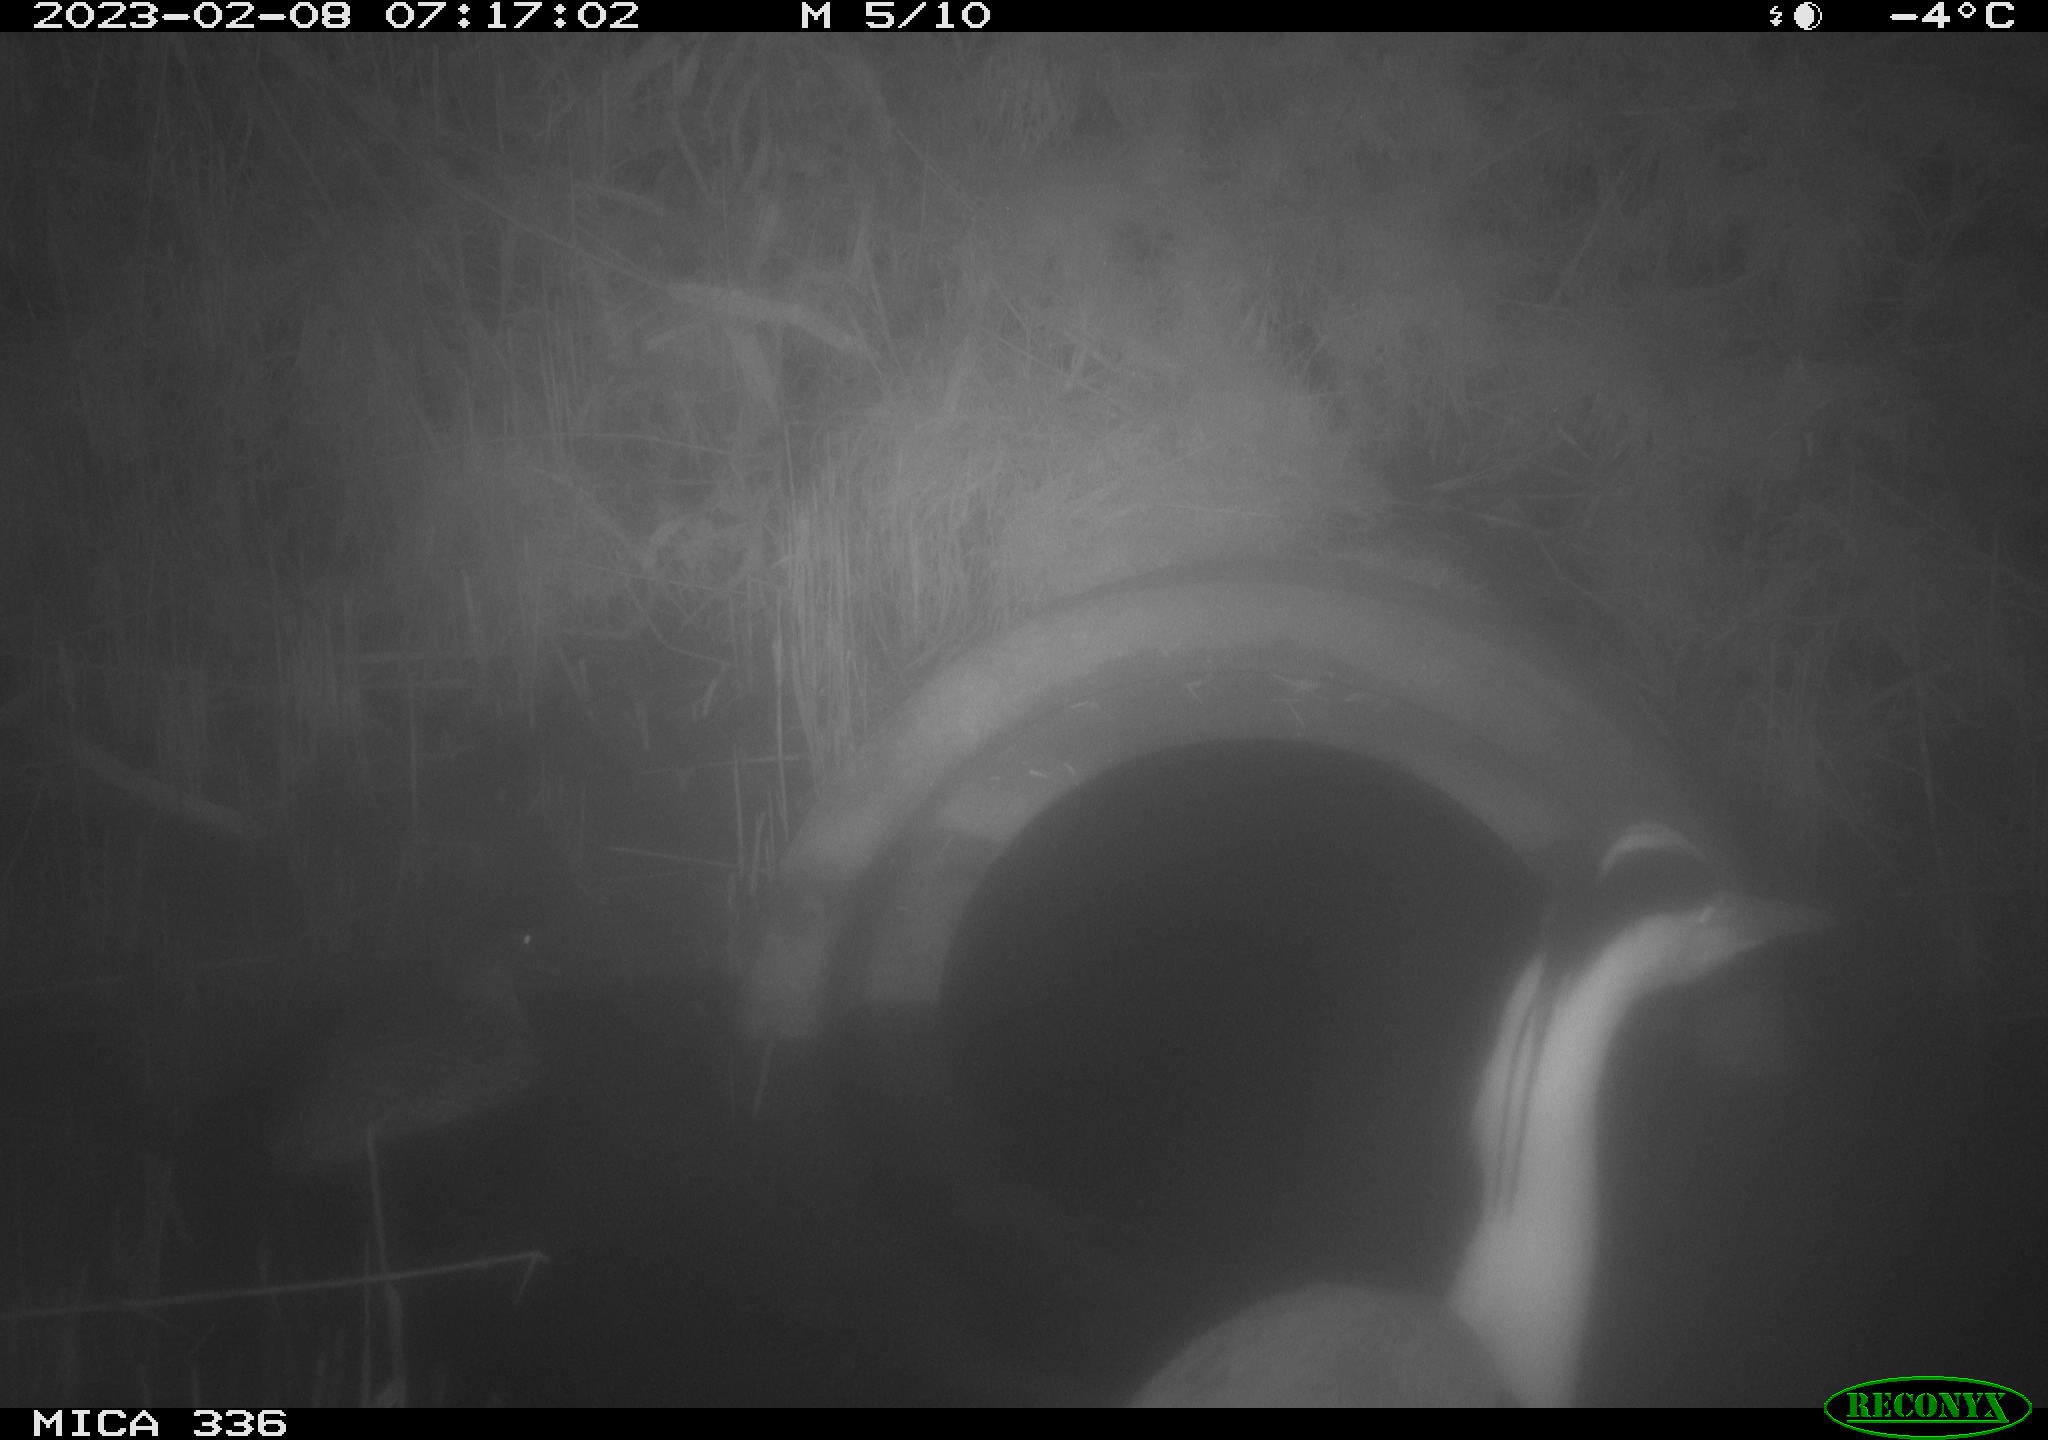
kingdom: Animalia
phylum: Chordata
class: Aves
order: Anseriformes
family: Anatidae
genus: Anas
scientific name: Anas
